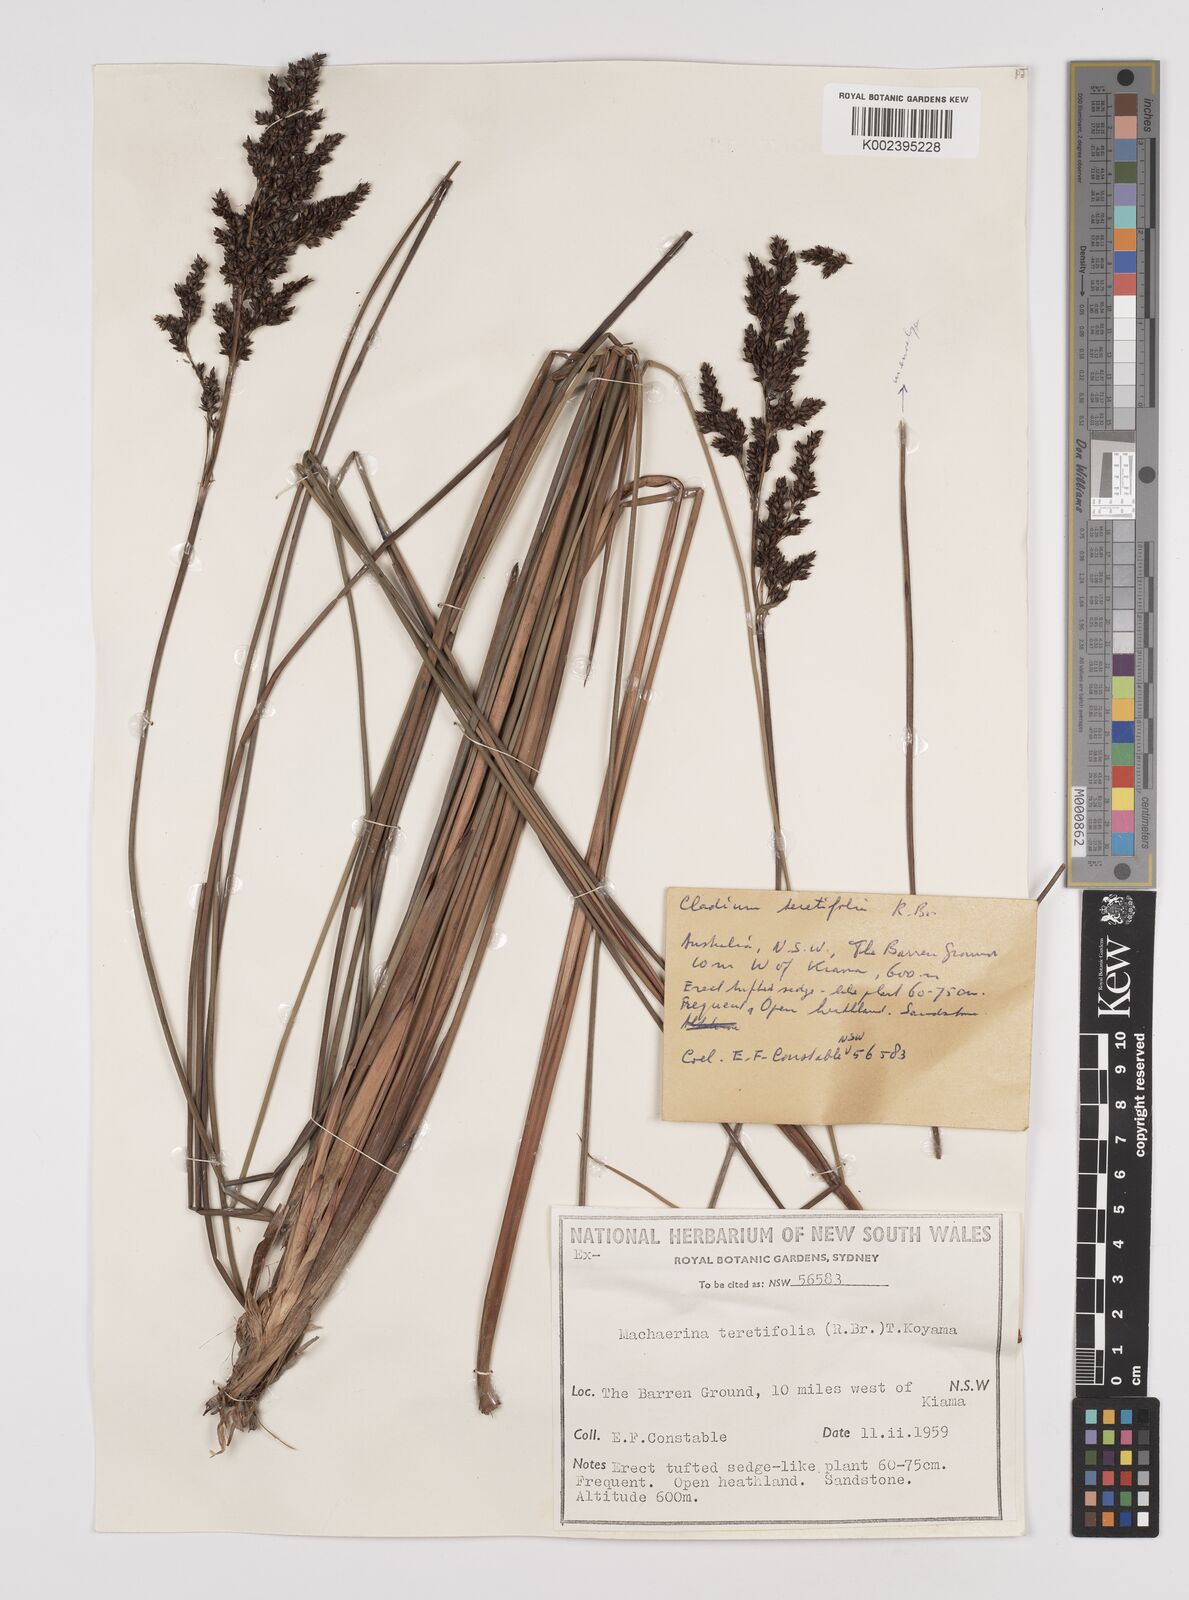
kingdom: Plantae
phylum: Tracheophyta
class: Liliopsida
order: Poales
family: Cyperaceae
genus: Machaerina
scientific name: Machaerina teretifolia
